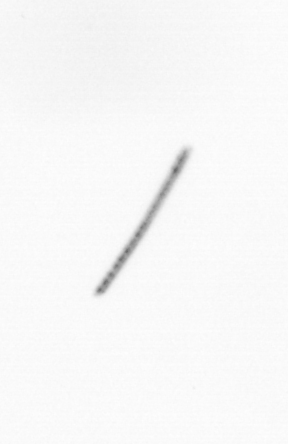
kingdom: Chromista
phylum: Ochrophyta
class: Bacillariophyceae
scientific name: Bacillariophyceae
